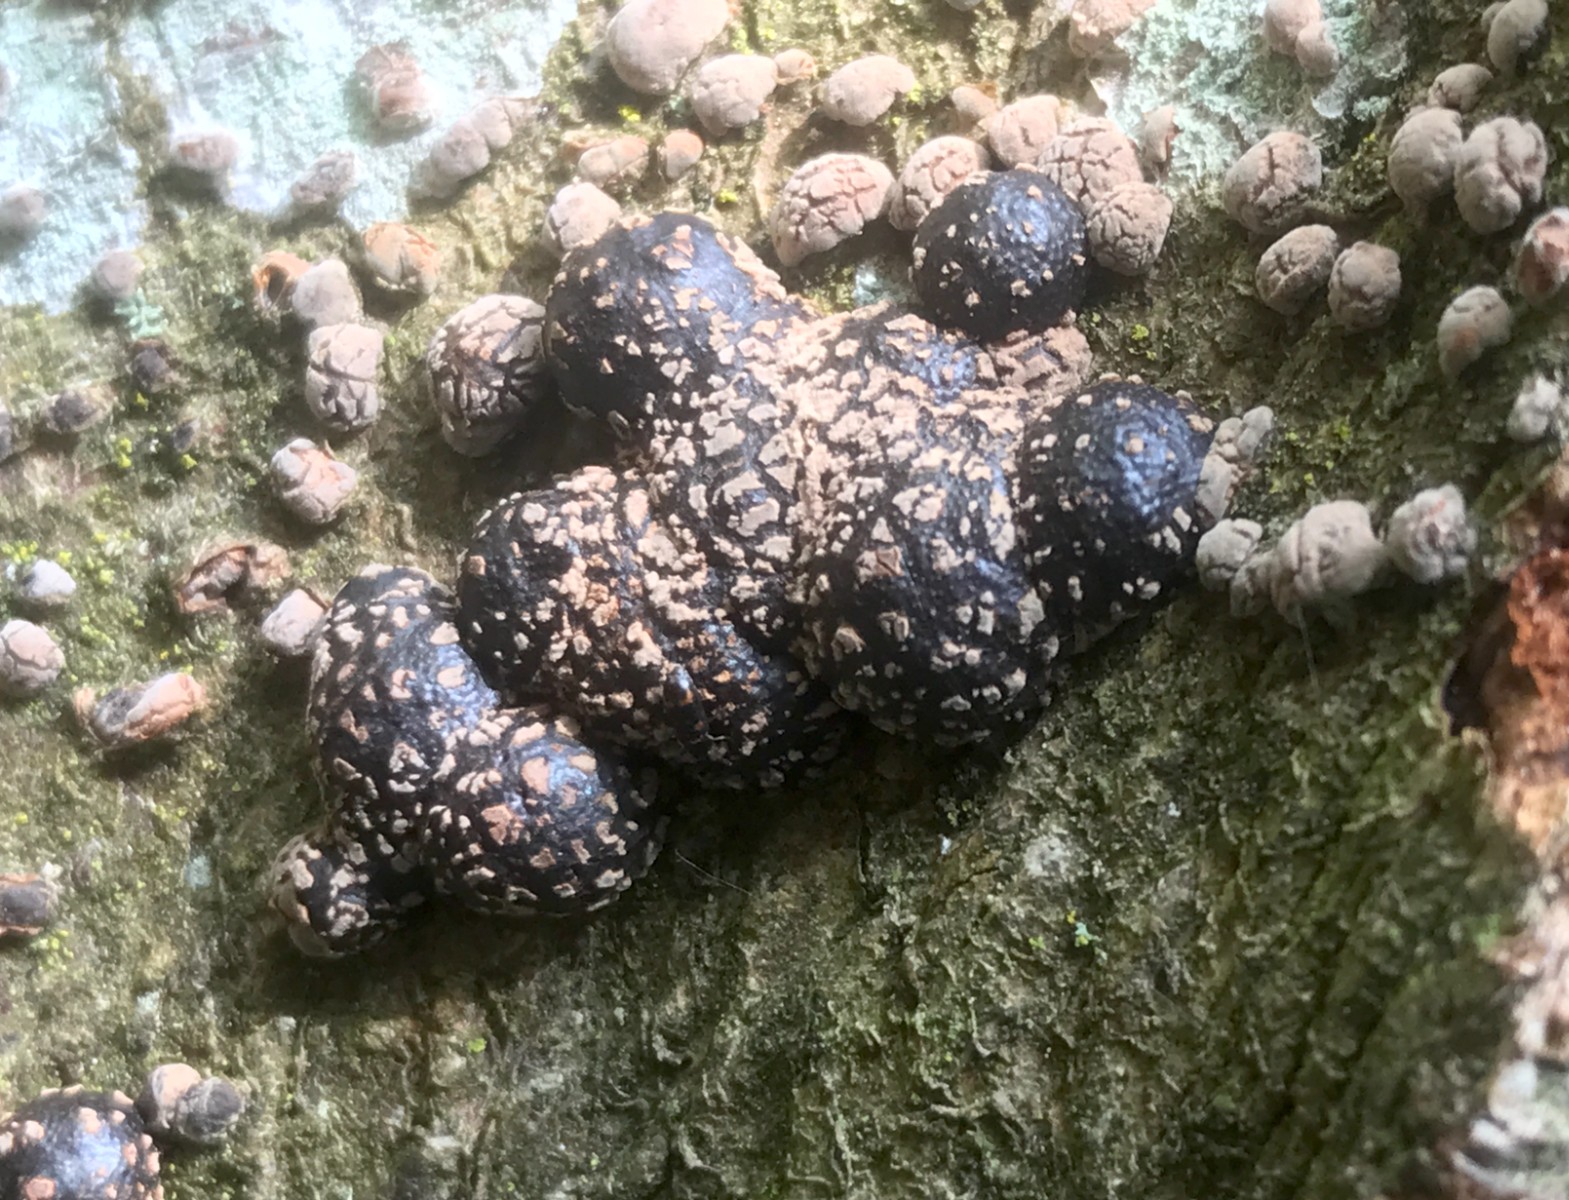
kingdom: Fungi
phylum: Ascomycota
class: Sordariomycetes
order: Xylariales
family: Hypoxylaceae
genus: Hypoxylon
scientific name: Hypoxylon fragiforme
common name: kuljordbær
